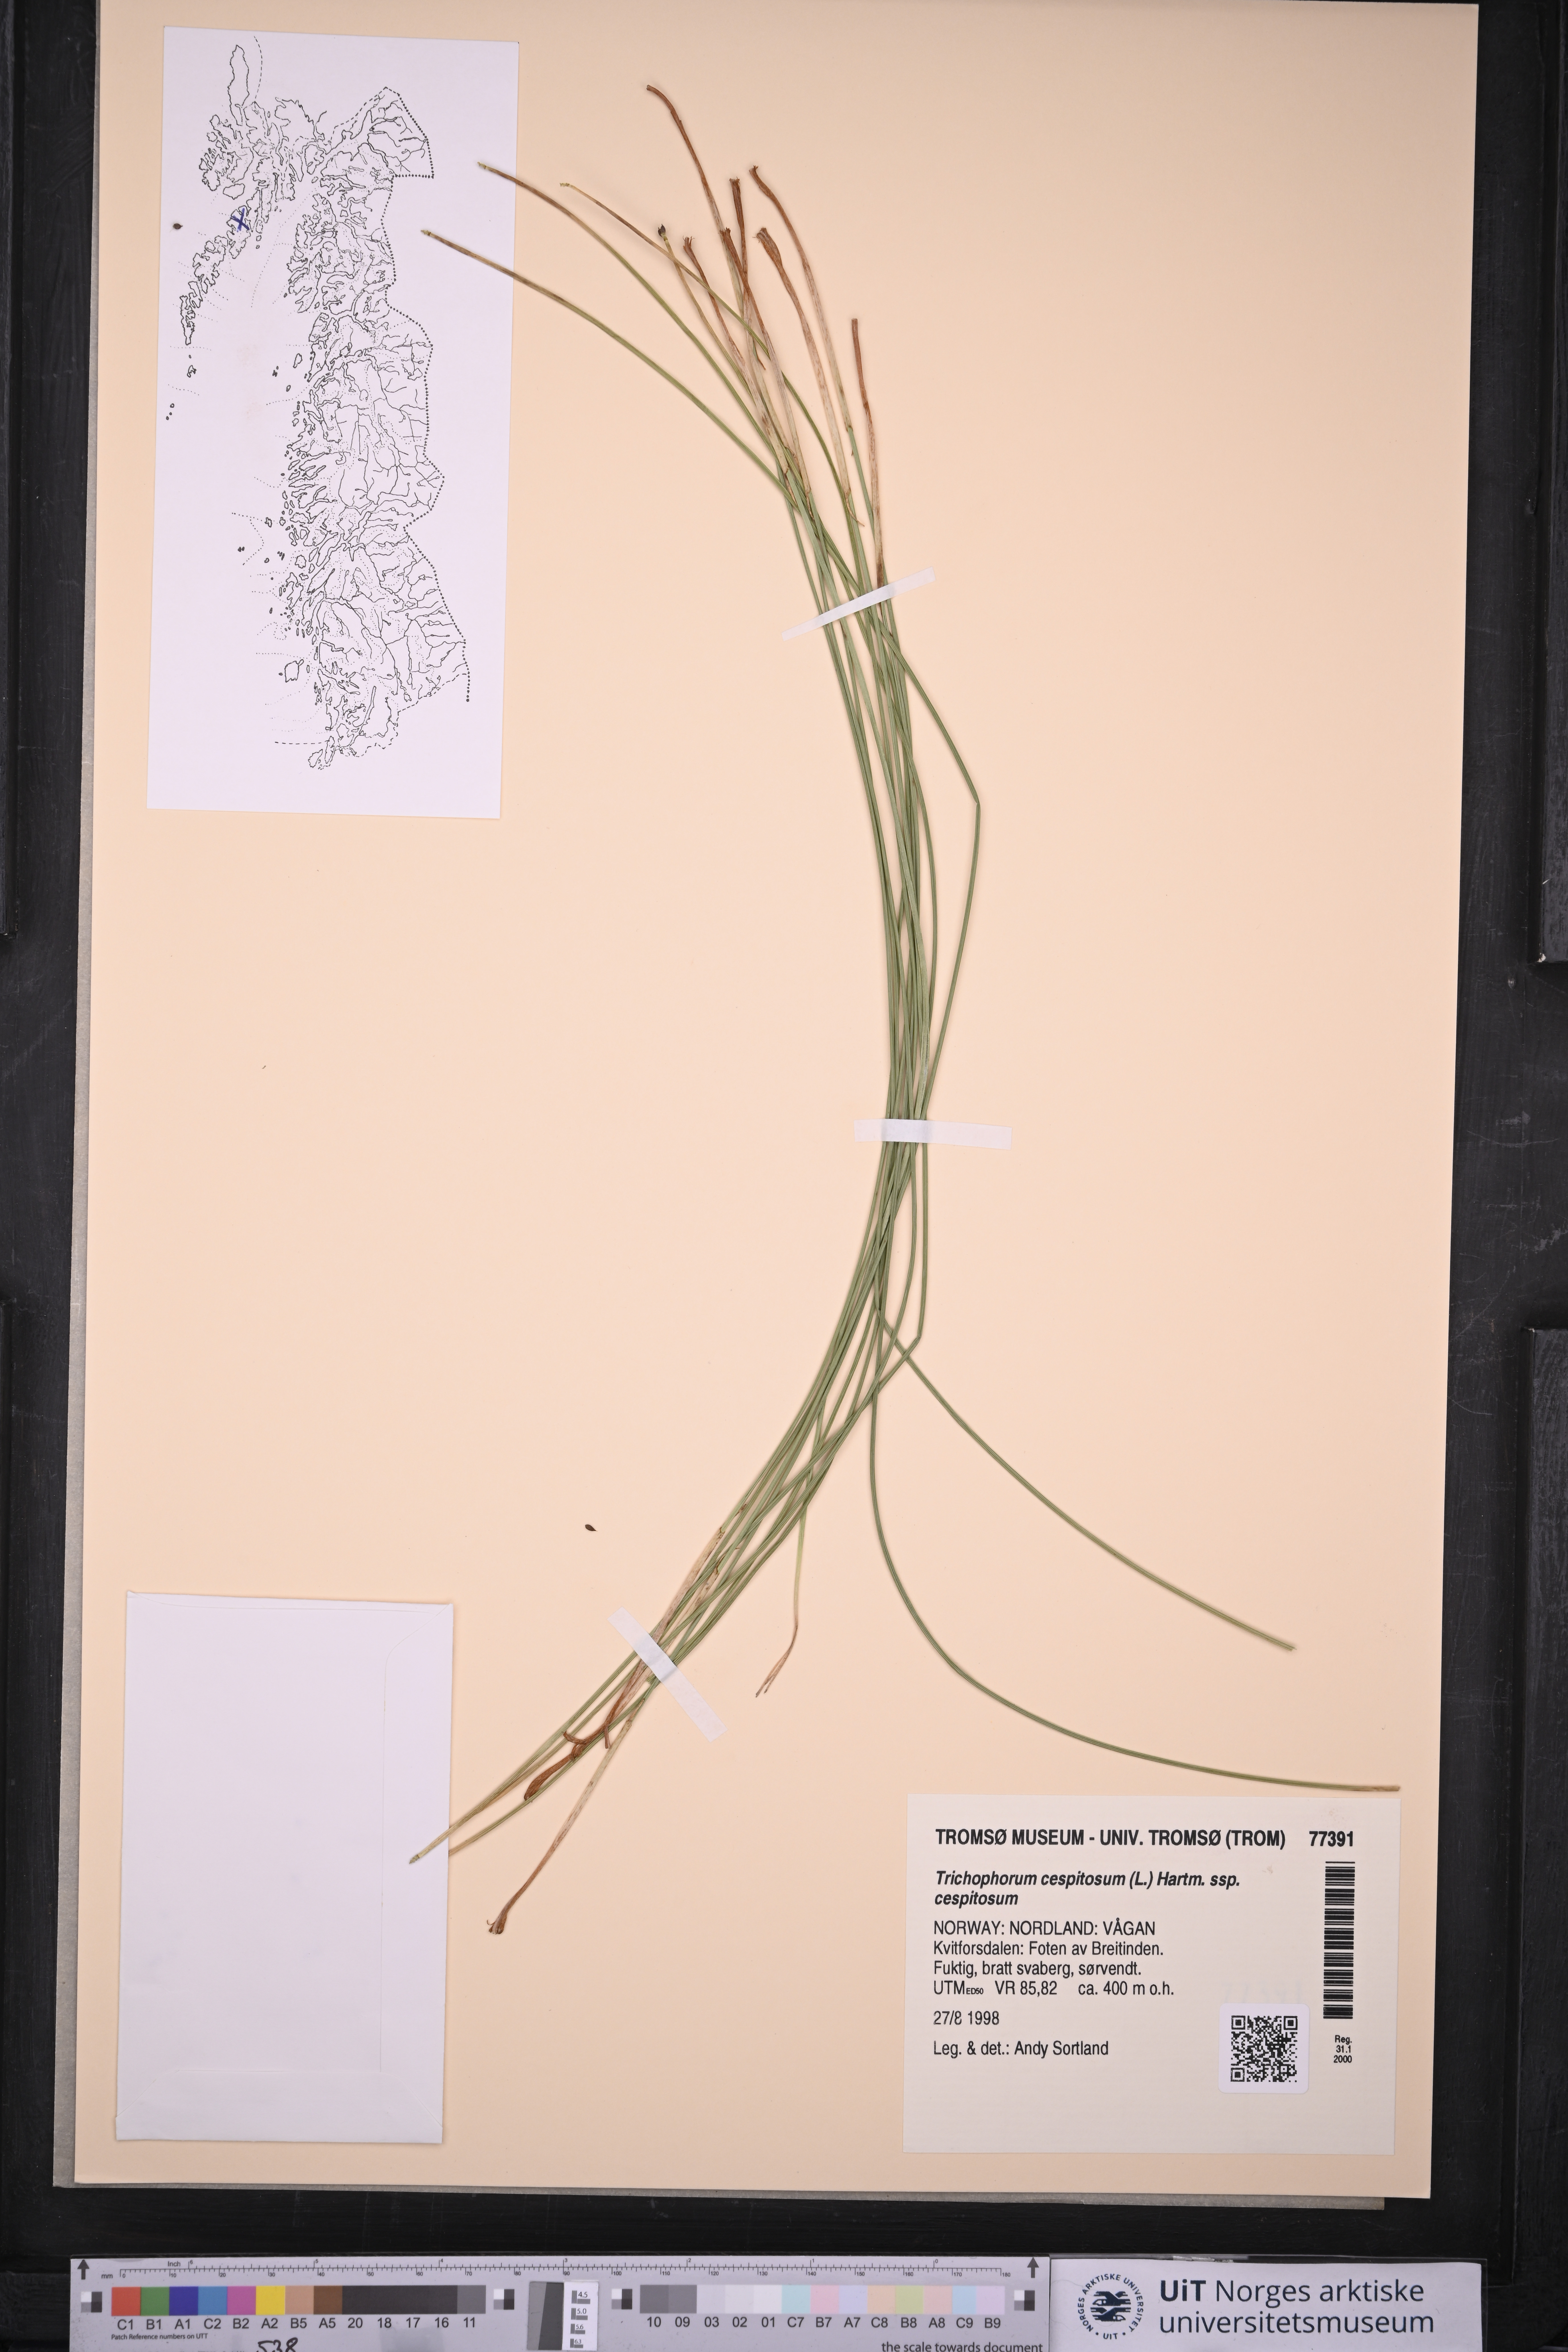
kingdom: Plantae
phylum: Tracheophyta
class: Liliopsida
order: Poales
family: Cyperaceae
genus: Trichophorum
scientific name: Trichophorum cespitosum
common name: Cespitose bulrush
